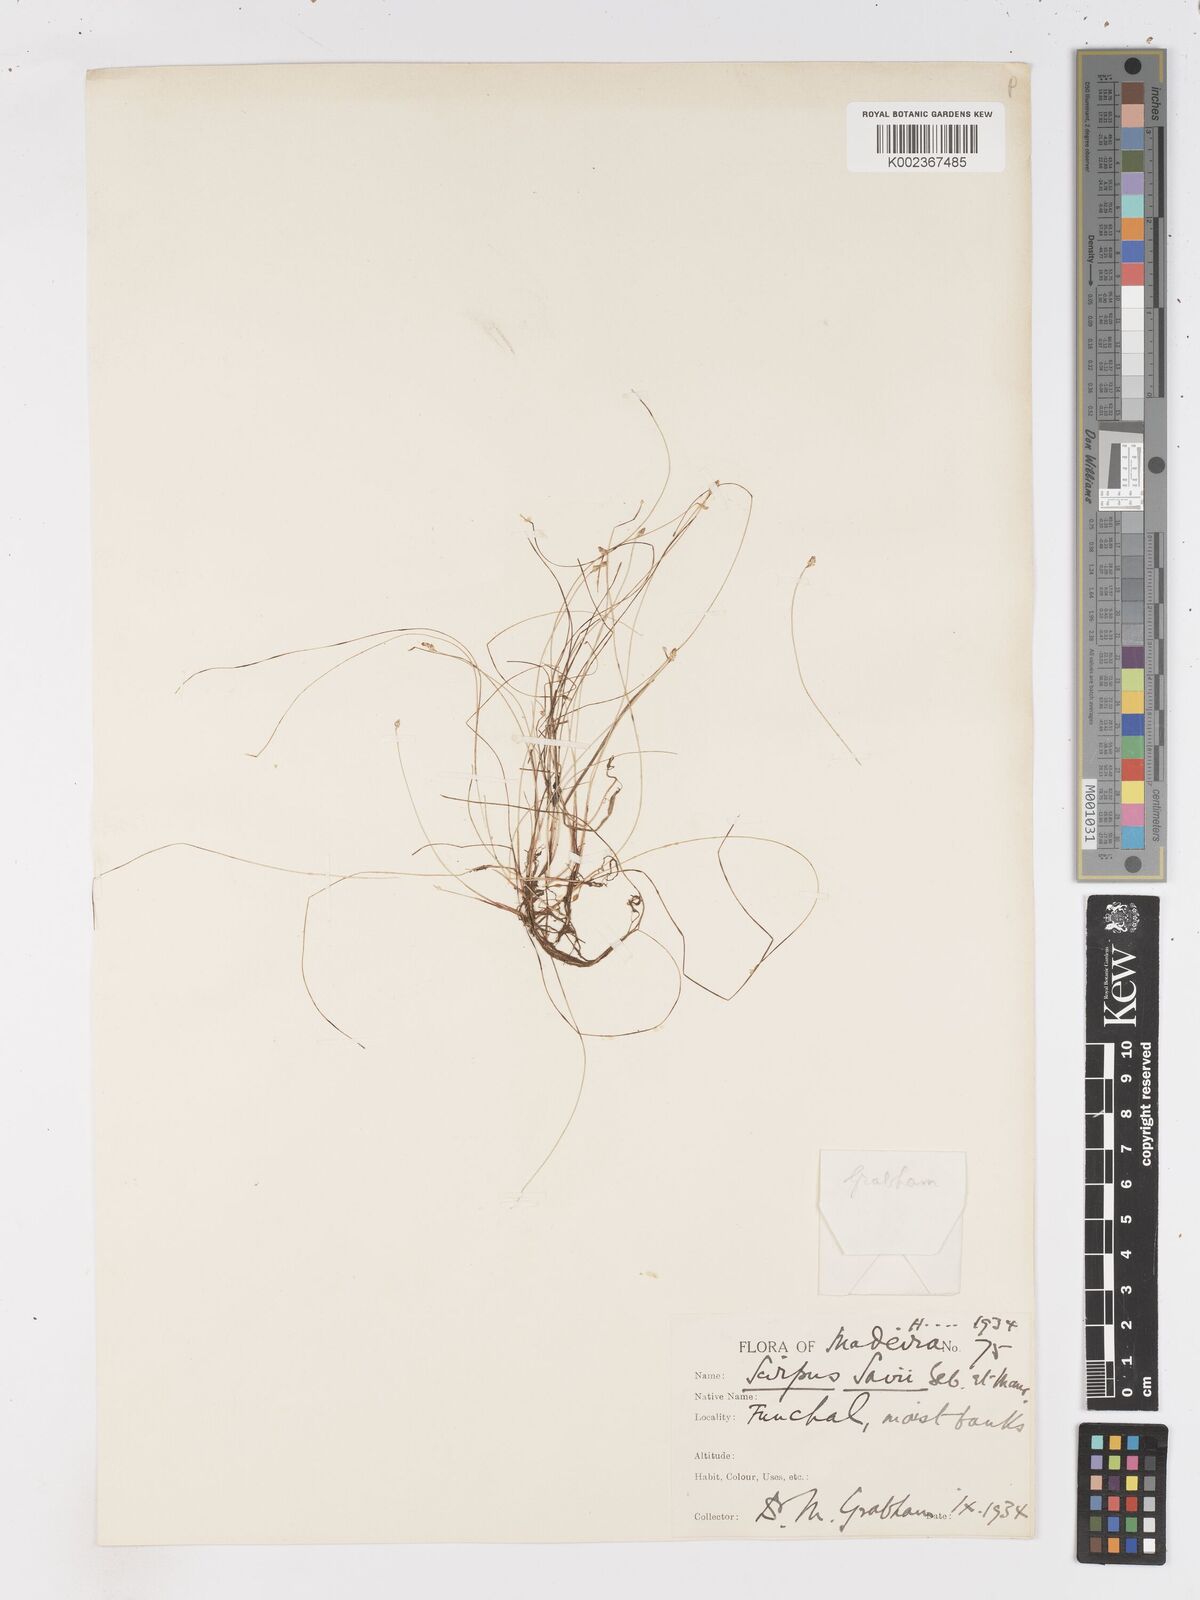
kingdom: Plantae
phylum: Tracheophyta
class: Liliopsida
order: Poales
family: Cyperaceae
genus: Isolepis
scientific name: Isolepis cernua
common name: Slender club-rush
